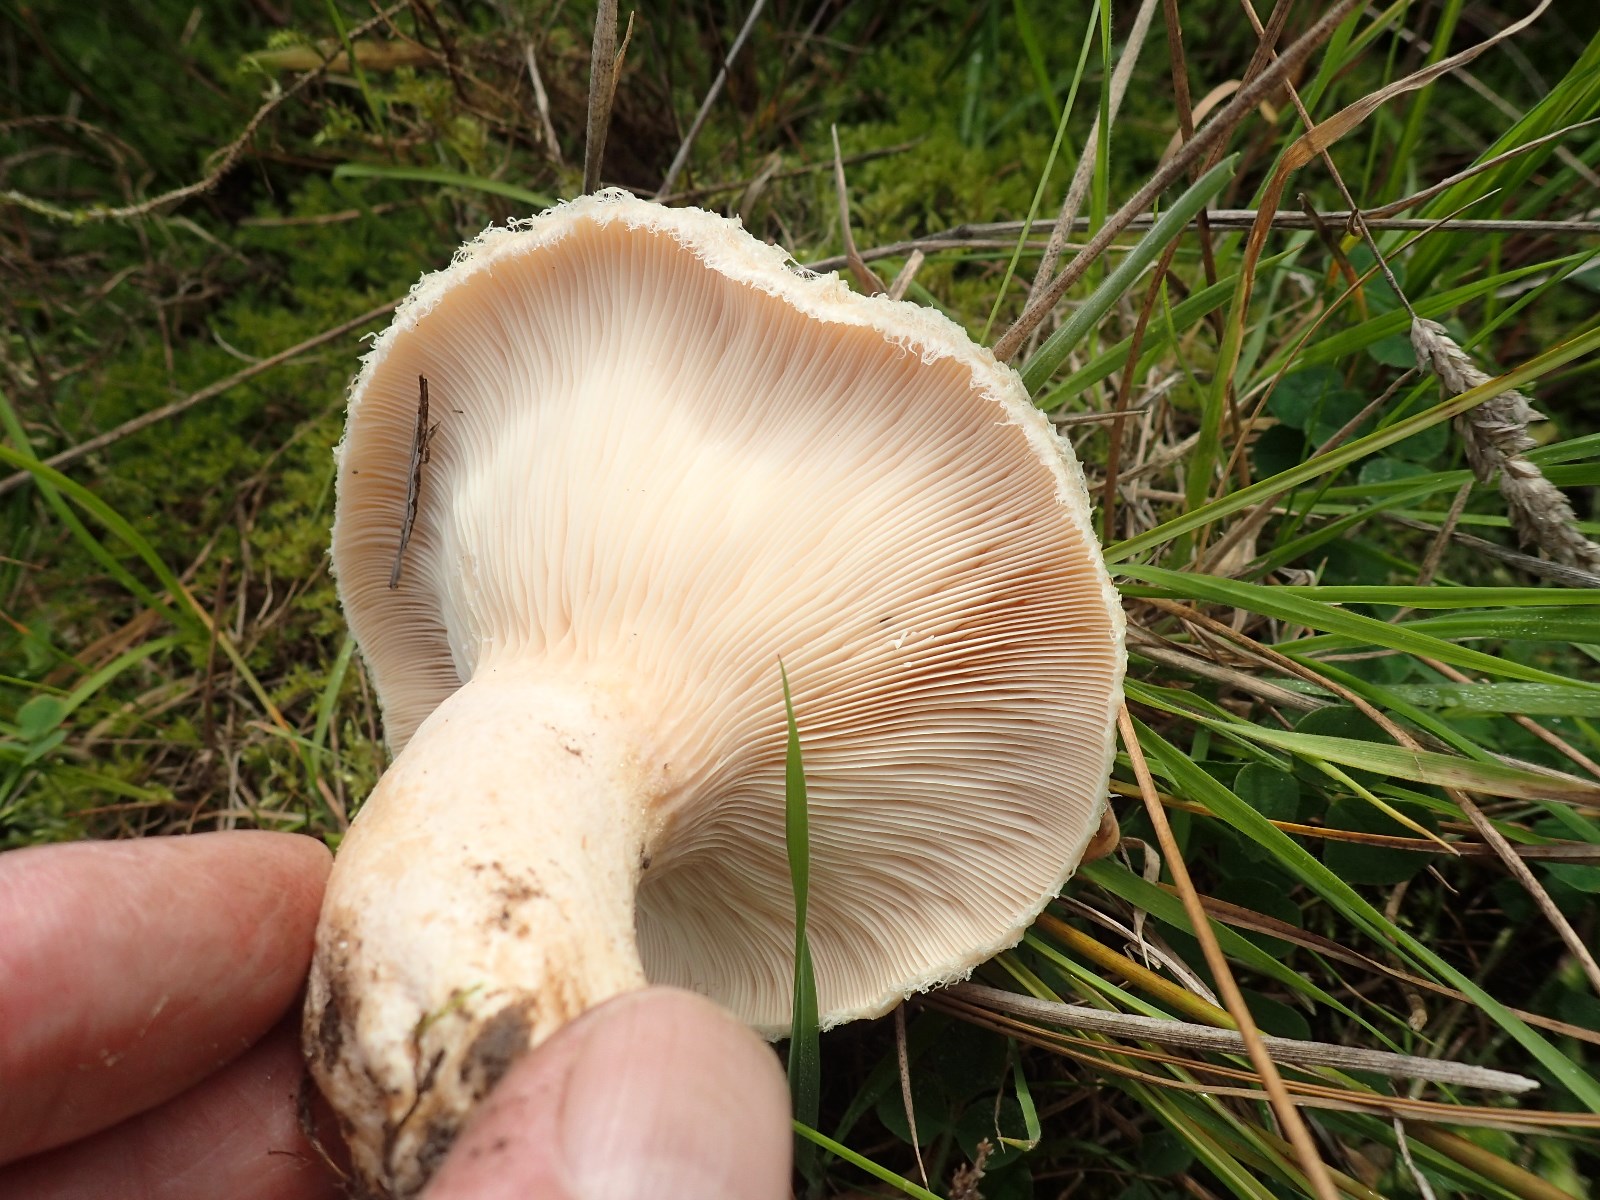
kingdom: Fungi
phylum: Basidiomycota
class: Agaricomycetes
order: Russulales
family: Russulaceae
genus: Lactarius
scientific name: Lactarius pubescens
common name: dunet mælkehat
